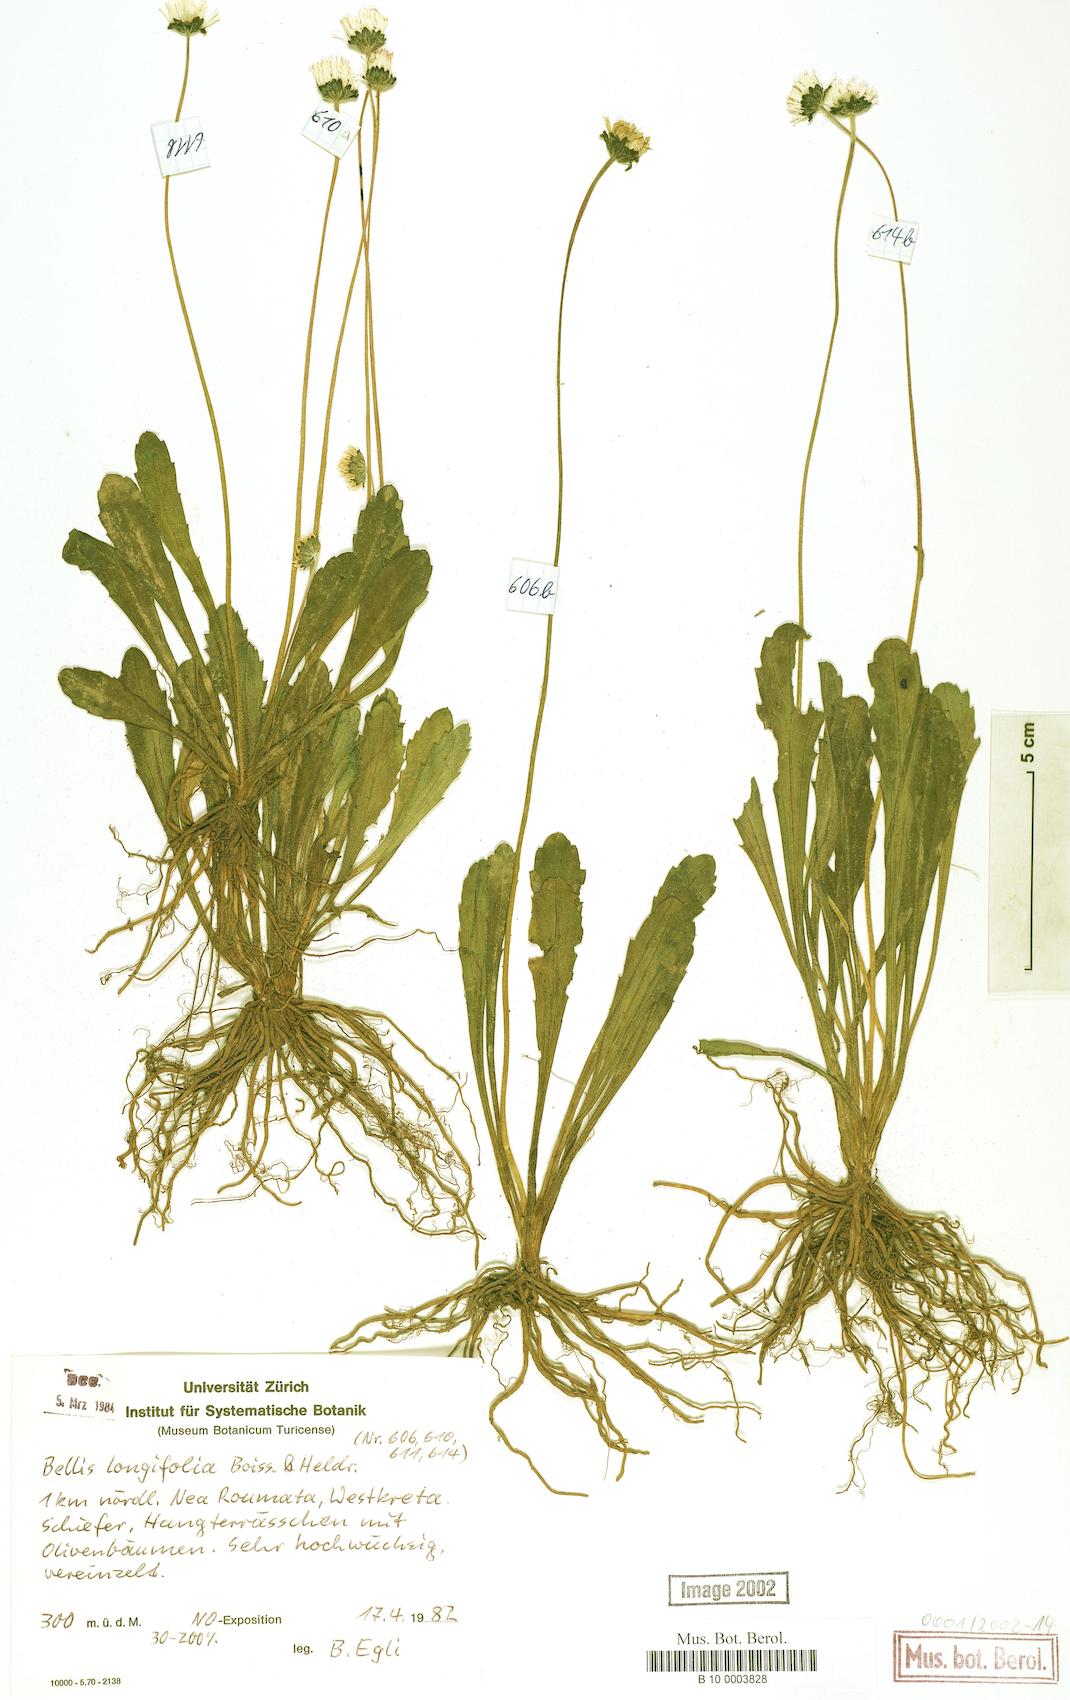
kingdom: Plantae
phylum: Tracheophyta
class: Magnoliopsida
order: Asterales
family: Asteraceae
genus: Bellis
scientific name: Bellis longifolia
